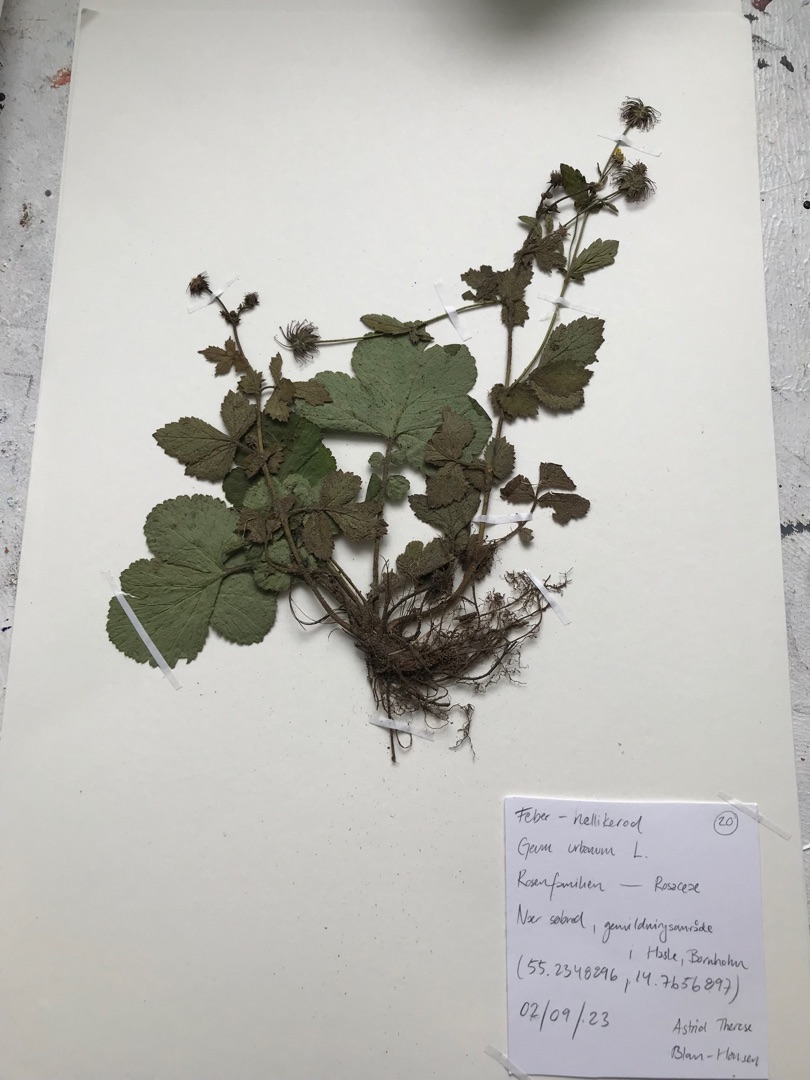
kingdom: Plantae
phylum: Tracheophyta
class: Magnoliopsida
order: Rosales
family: Rosaceae
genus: Geum
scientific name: Geum urbanum
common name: Feber-nellikerod
